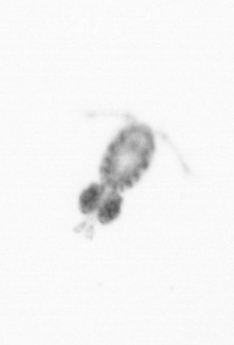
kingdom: Animalia
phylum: Arthropoda
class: Copepoda
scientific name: Copepoda
